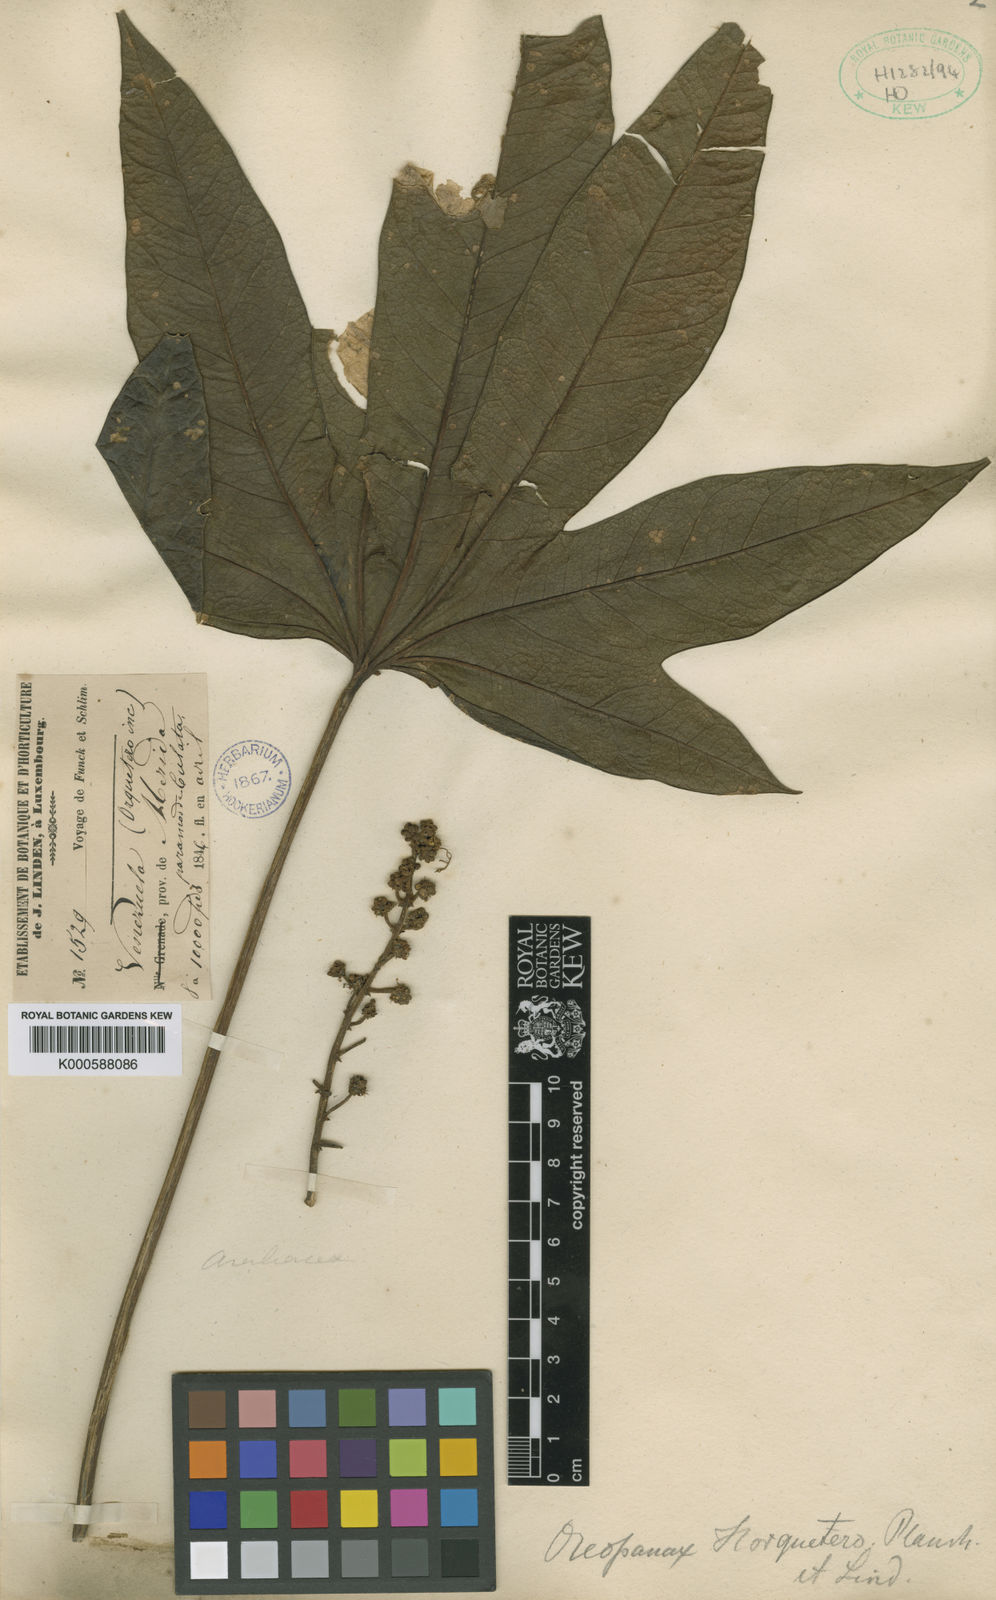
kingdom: Plantae
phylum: Tracheophyta
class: Magnoliopsida
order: Apiales
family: Araliaceae
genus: Oreopanax
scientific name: Oreopanax discolor
